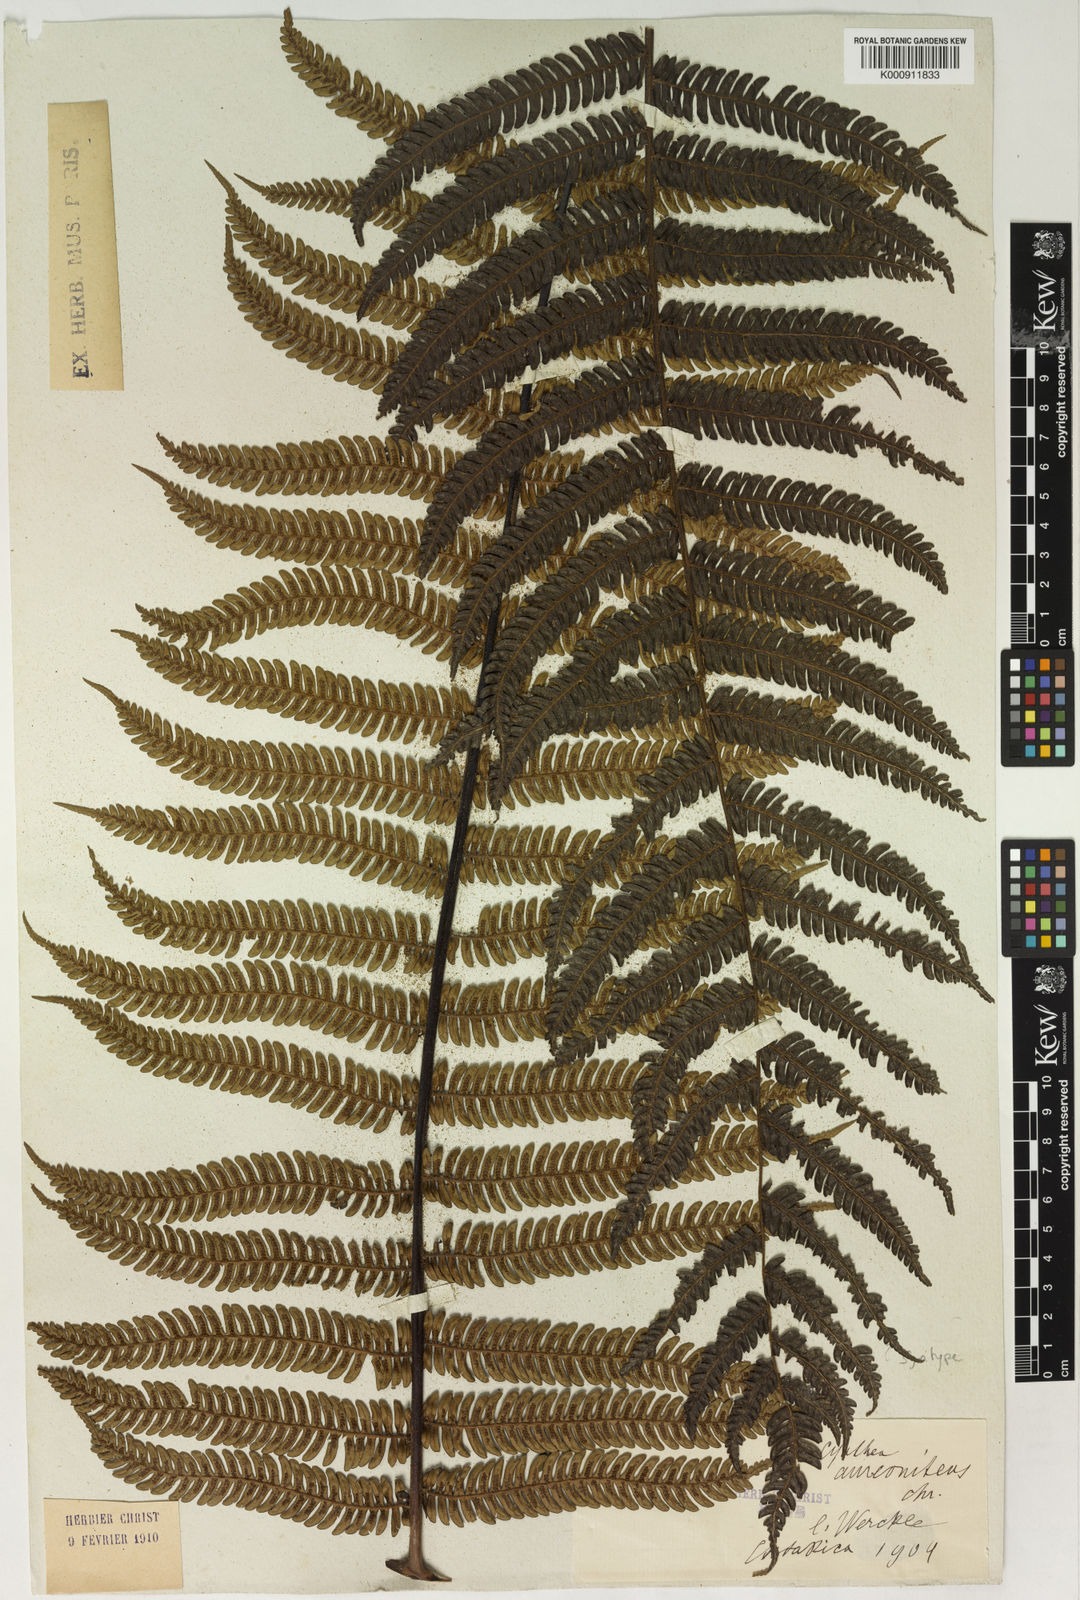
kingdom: Plantae
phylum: Tracheophyta
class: Polypodiopsida
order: Cyatheales
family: Cyatheaceae
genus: Alsophila
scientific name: Alsophila erinacea
